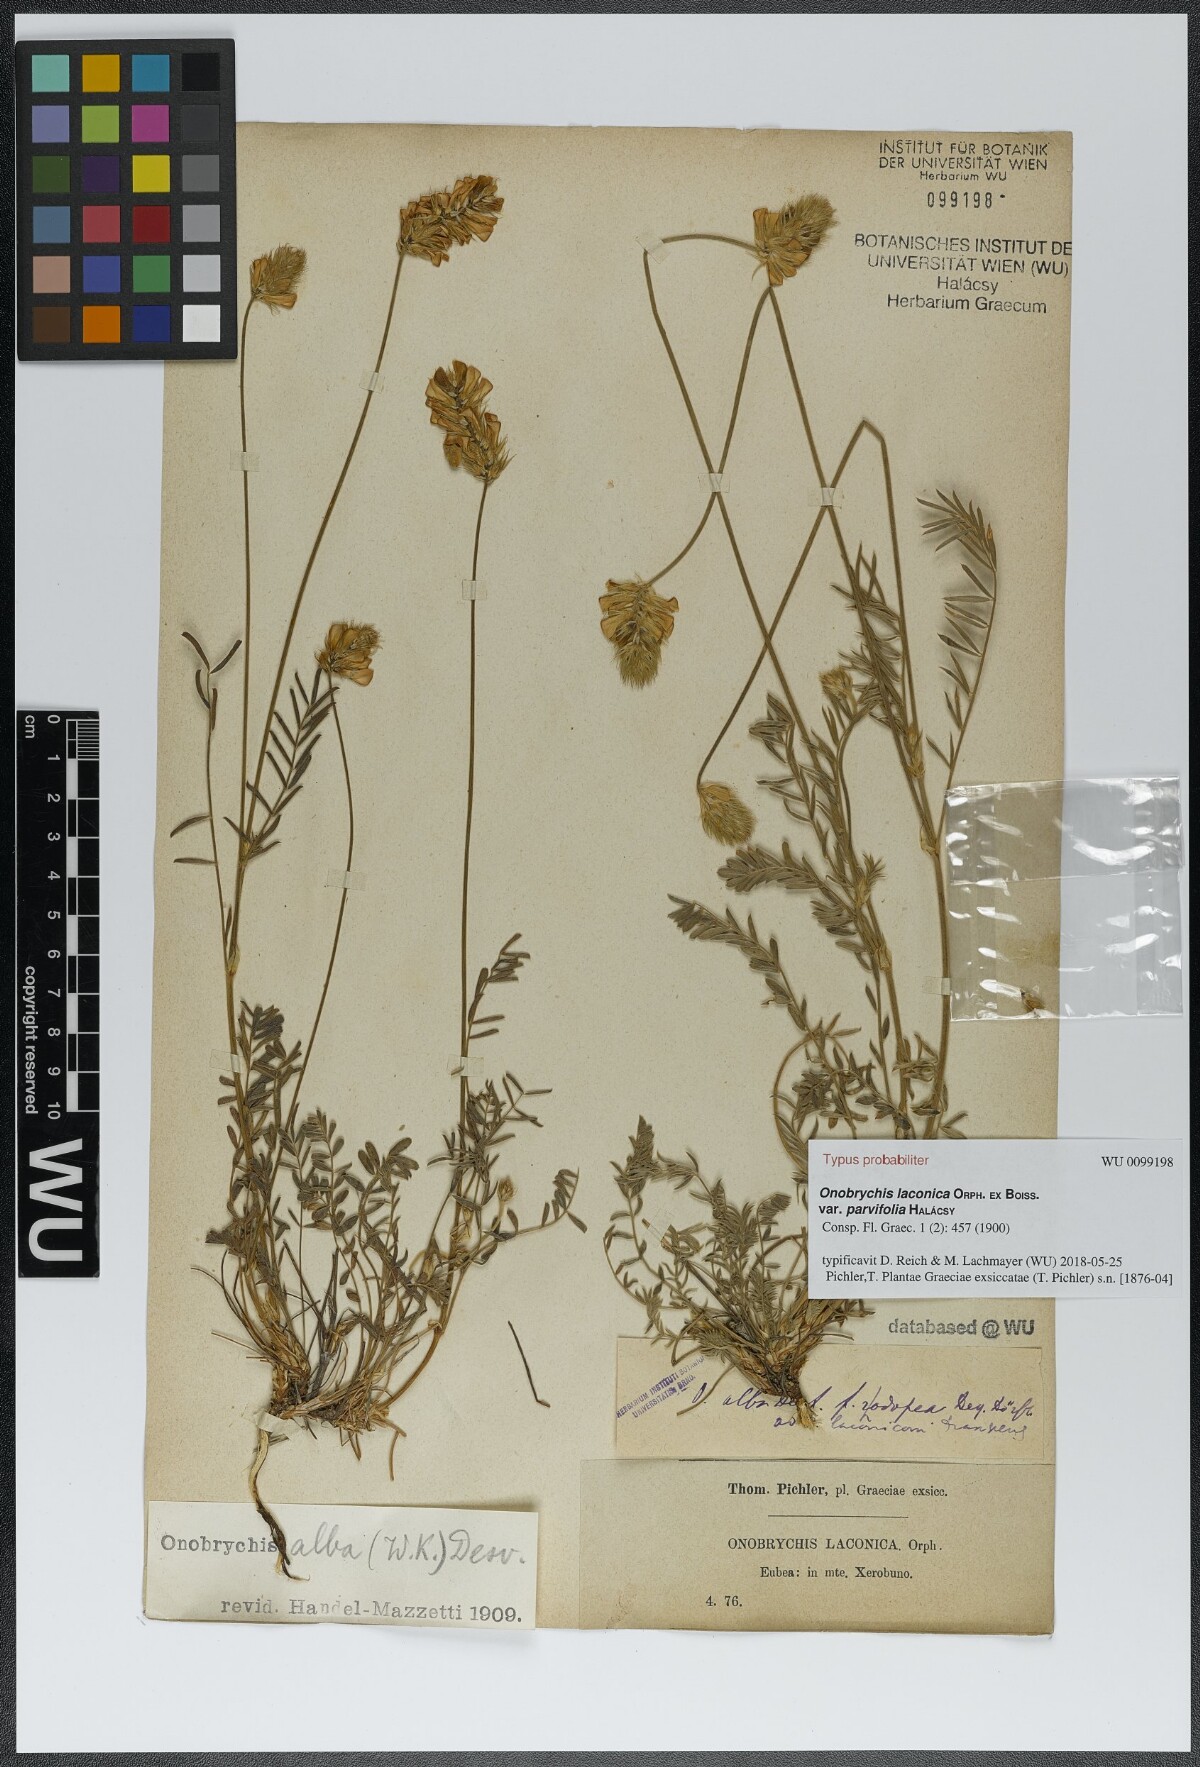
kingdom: Plantae
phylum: Tracheophyta
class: Magnoliopsida
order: Fabales
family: Fabaceae
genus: Onobrychis
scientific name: Onobrychis alba
